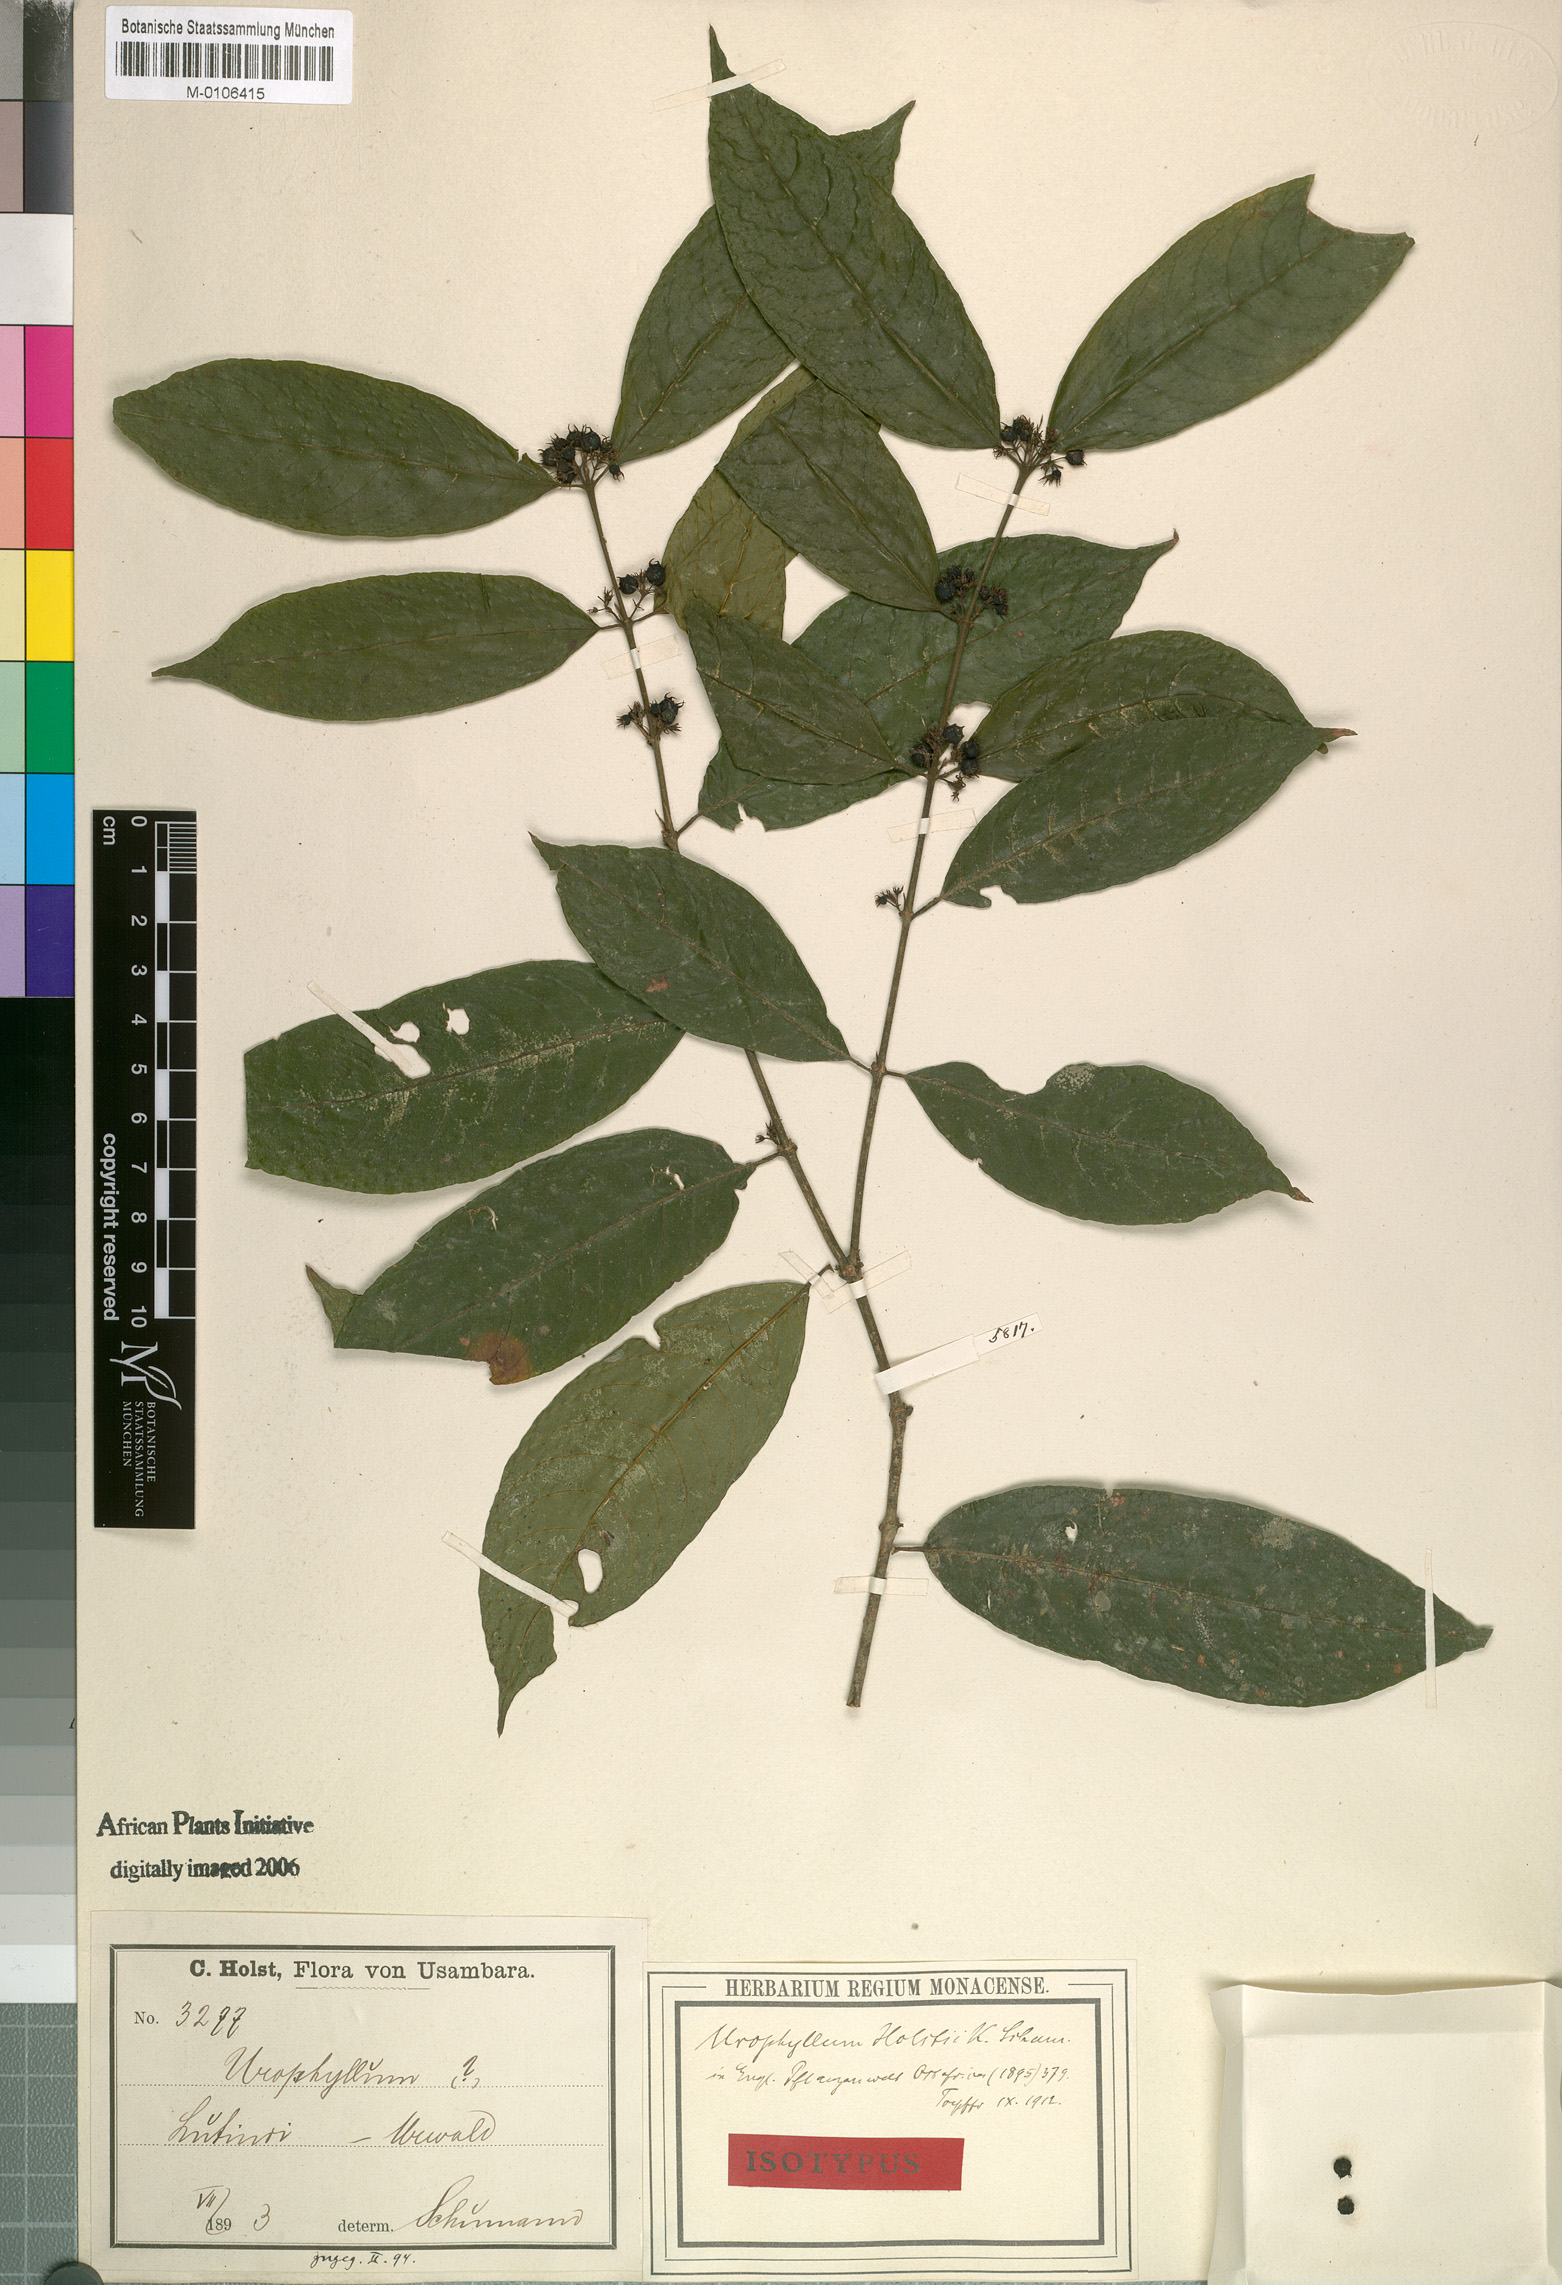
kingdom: Plantae
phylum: Tracheophyta
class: Magnoliopsida
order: Gentianales
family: Rubiaceae
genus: Pauridiantha
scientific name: Pauridiantha paucinervis
